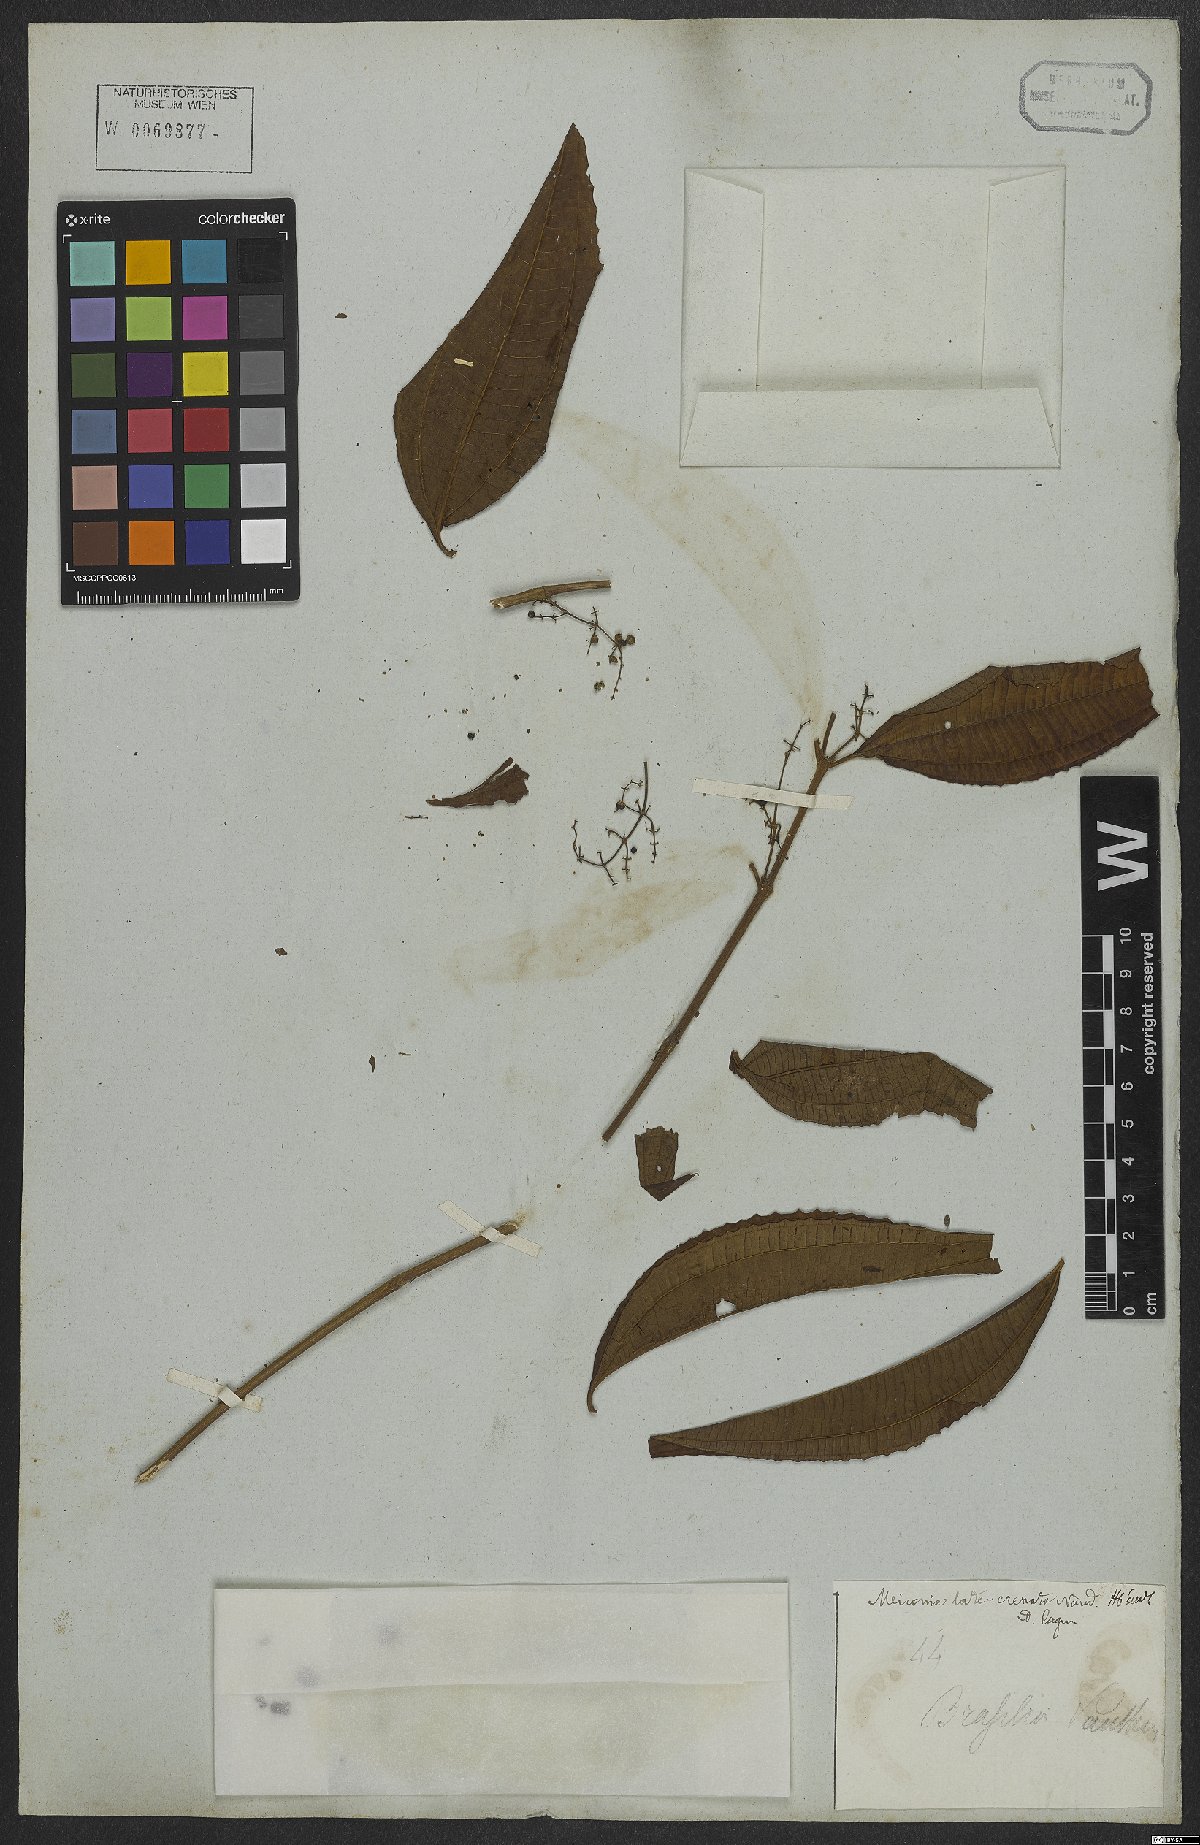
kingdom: Plantae
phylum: Tracheophyta
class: Magnoliopsida
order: Myrtales
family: Melastomataceae
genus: Miconia
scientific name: Miconia latecrenata
